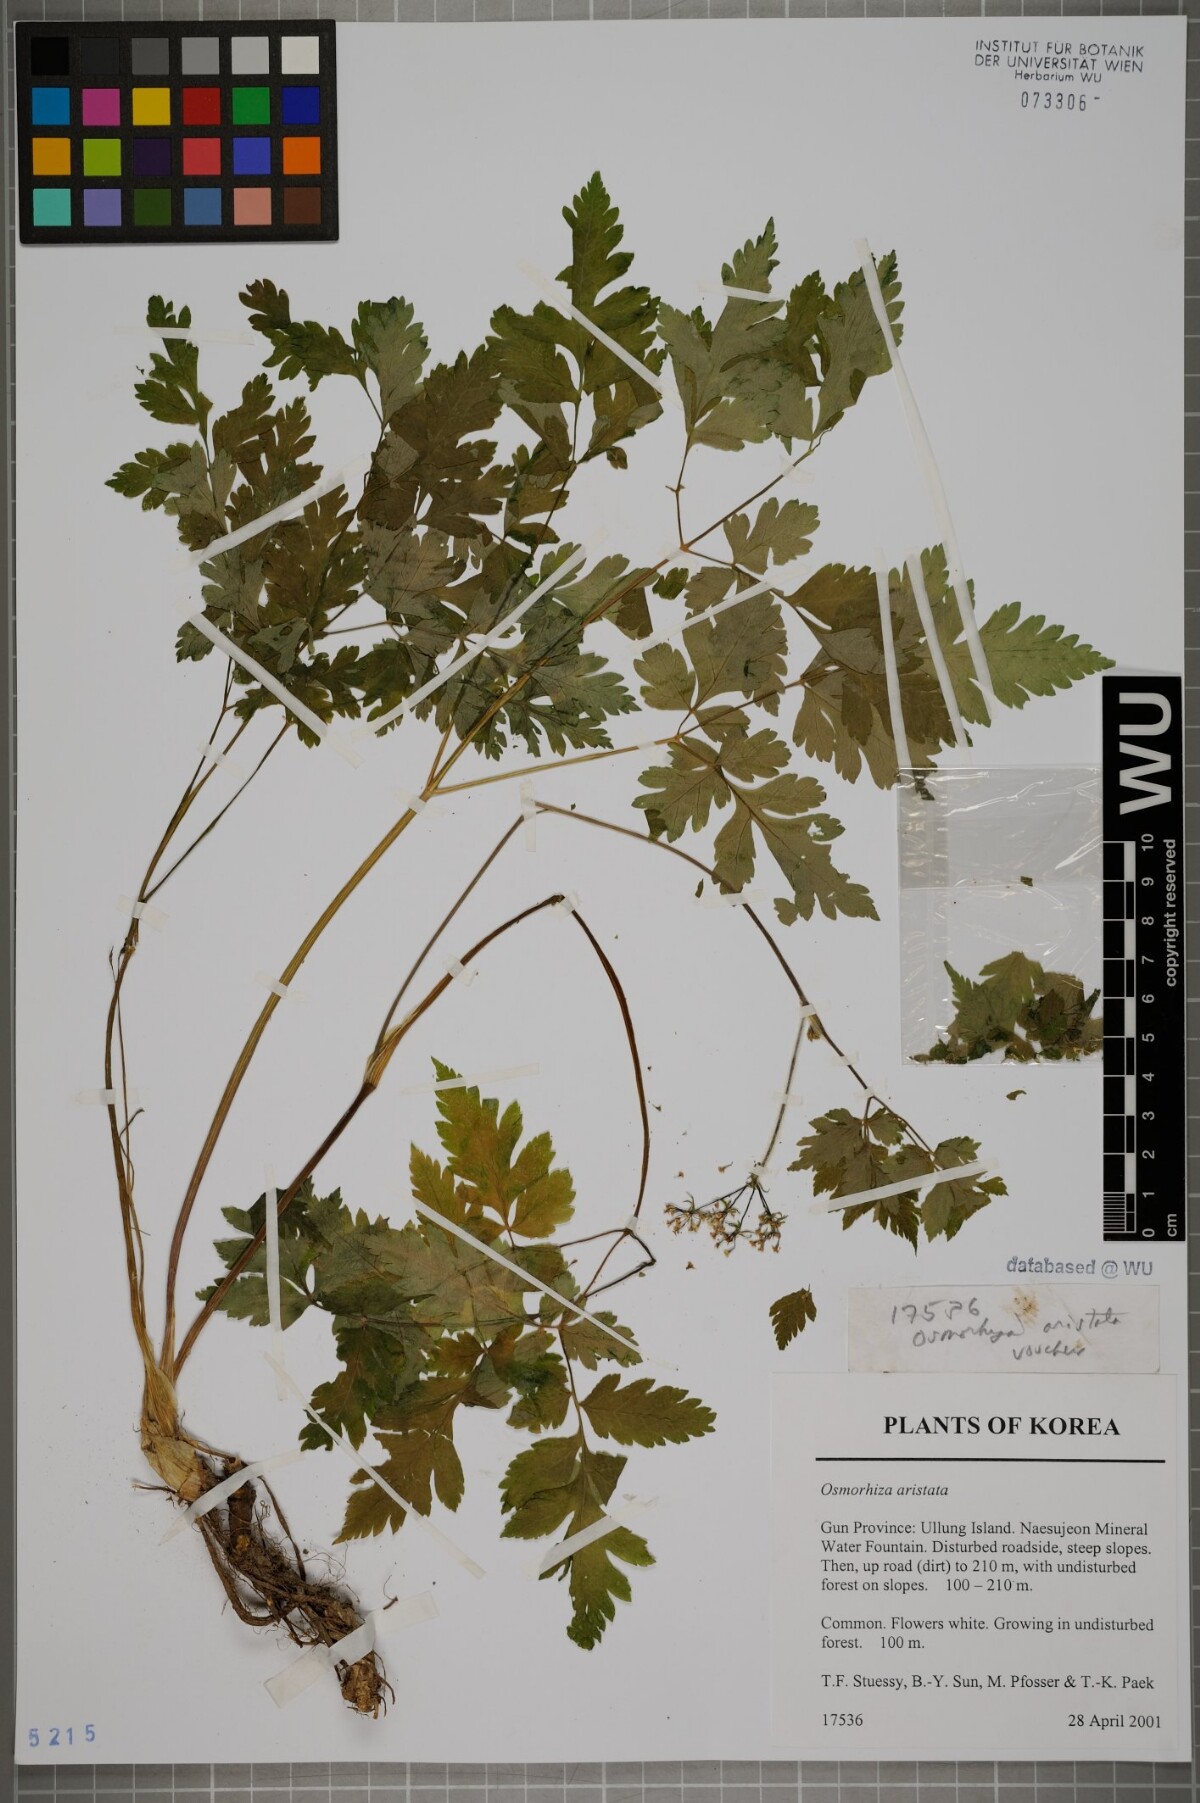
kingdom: Plantae
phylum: Tracheophyta
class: Magnoliopsida
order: Apiales
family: Apiaceae
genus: Osmorhiza
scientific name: Osmorhiza aristata
